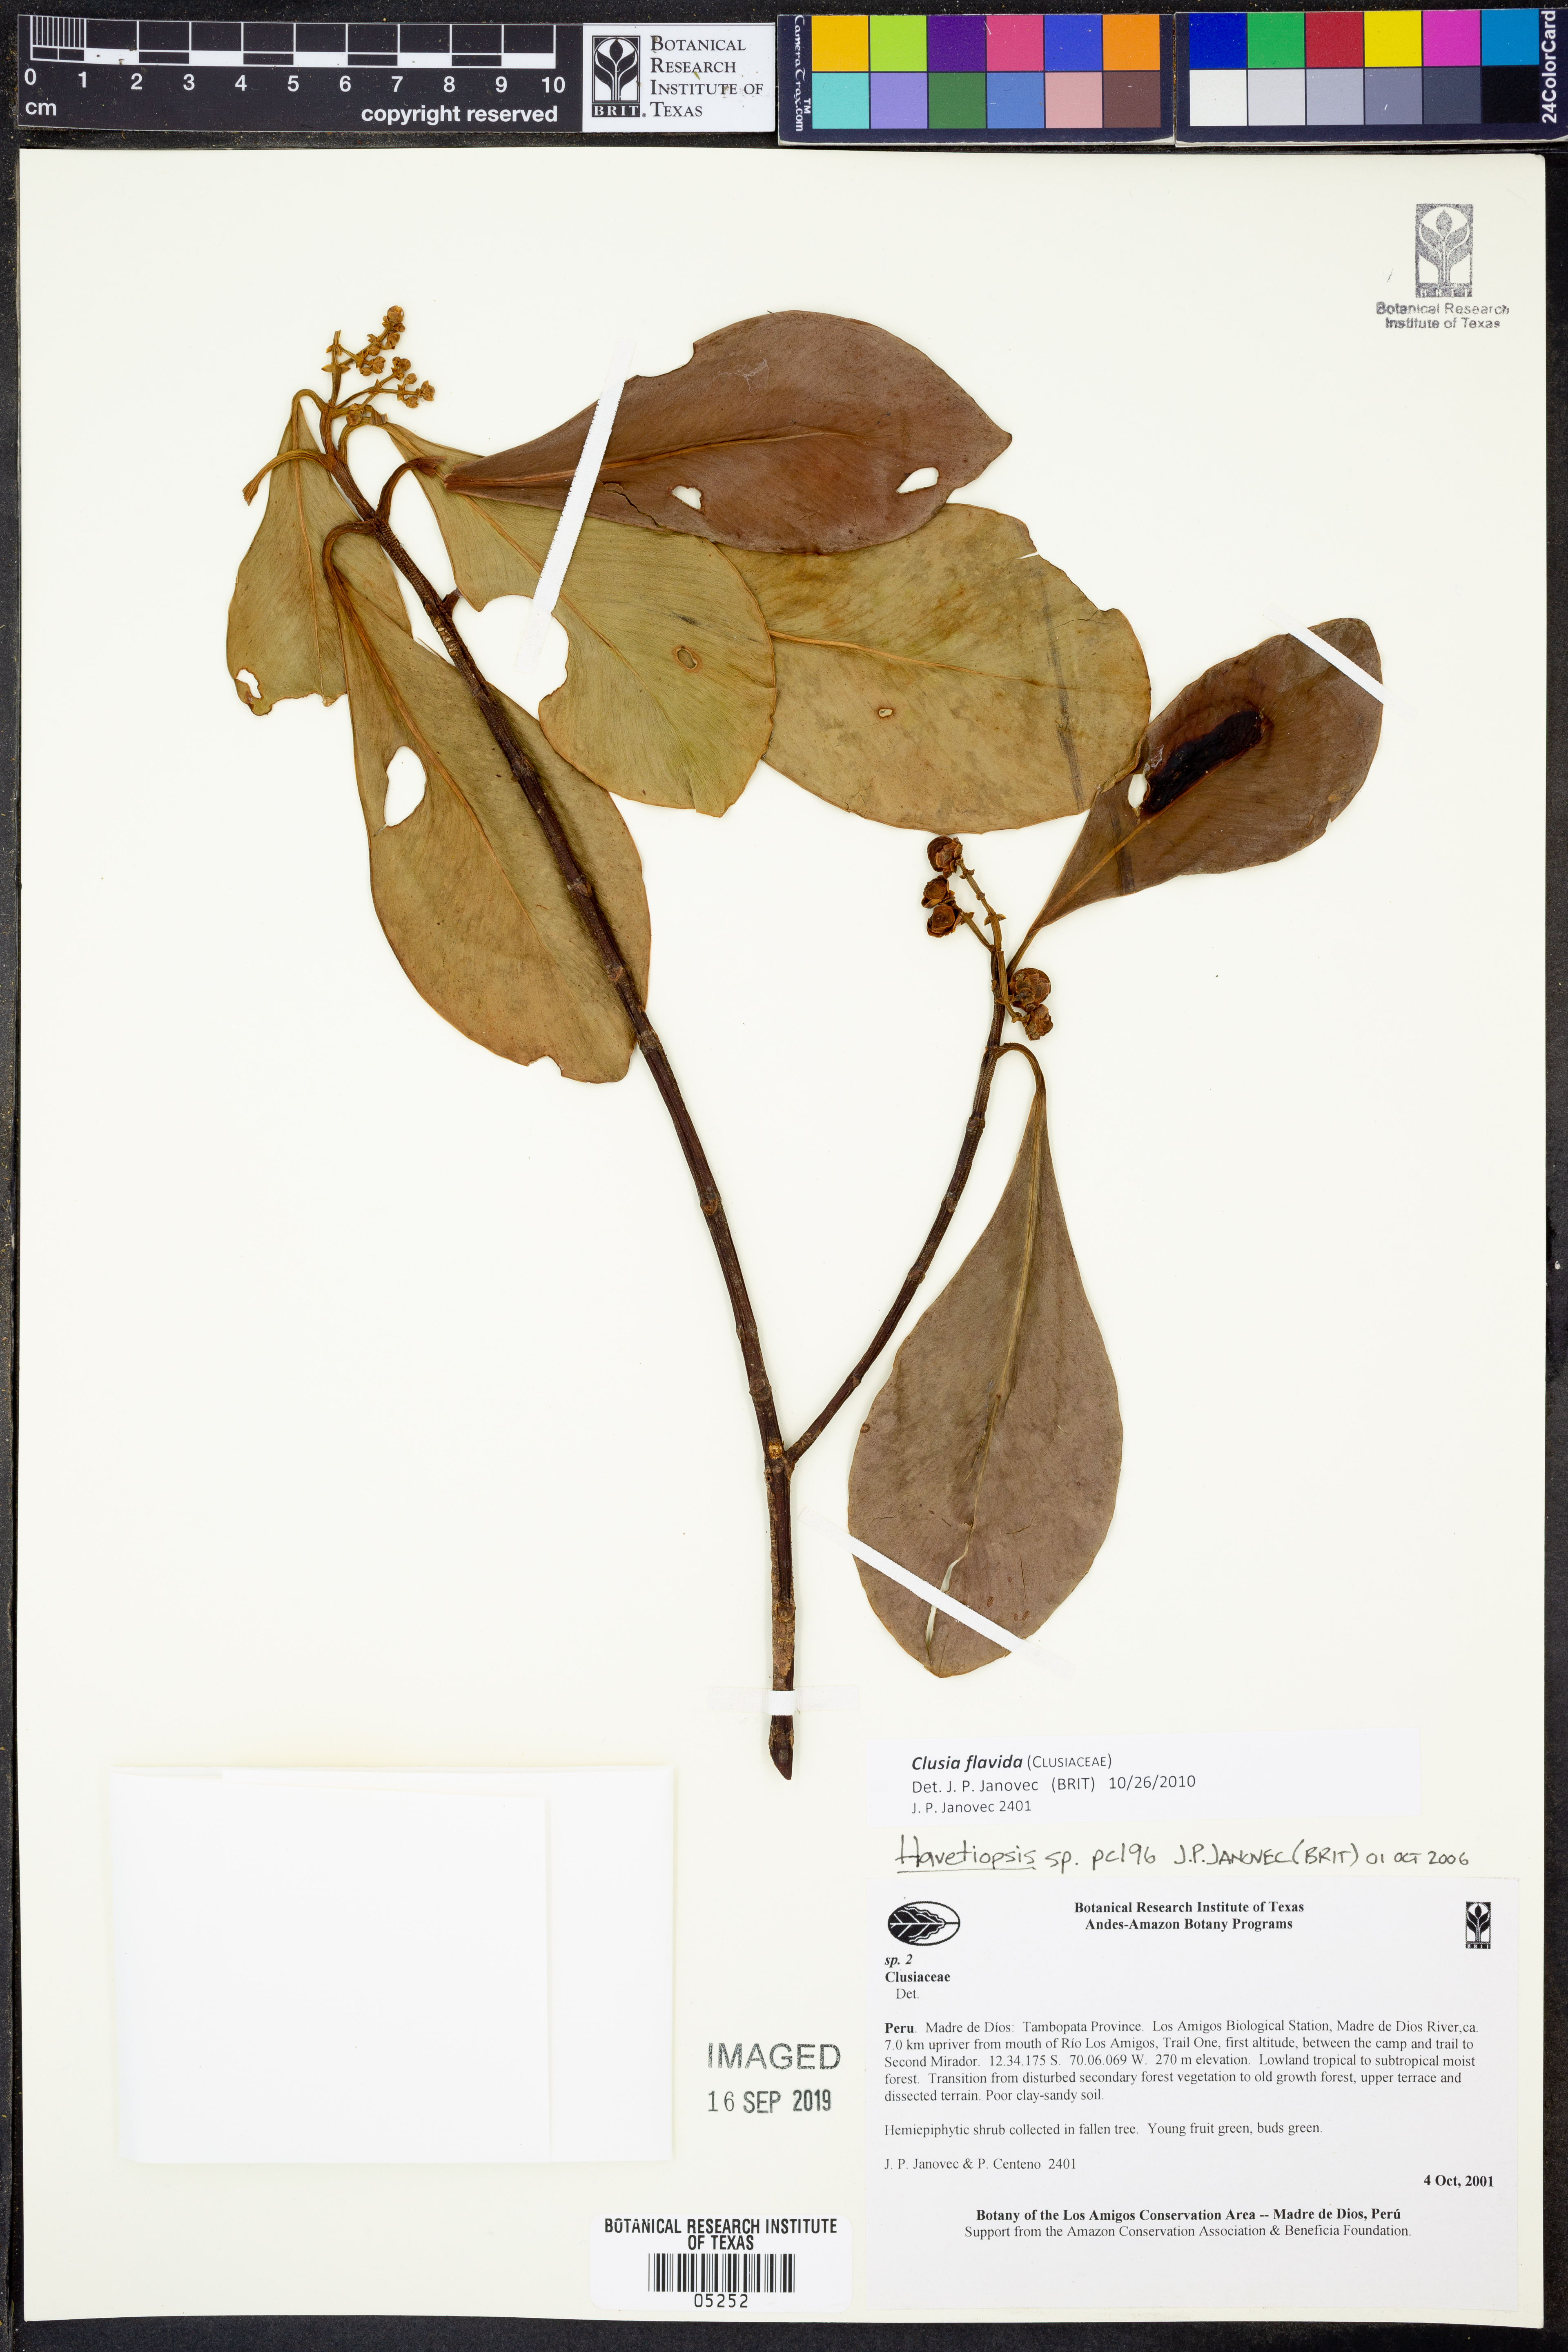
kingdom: Plantae
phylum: Tracheophyta
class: Magnoliopsida
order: Malpighiales
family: Clusiaceae
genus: Clusia
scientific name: Clusia flavida
